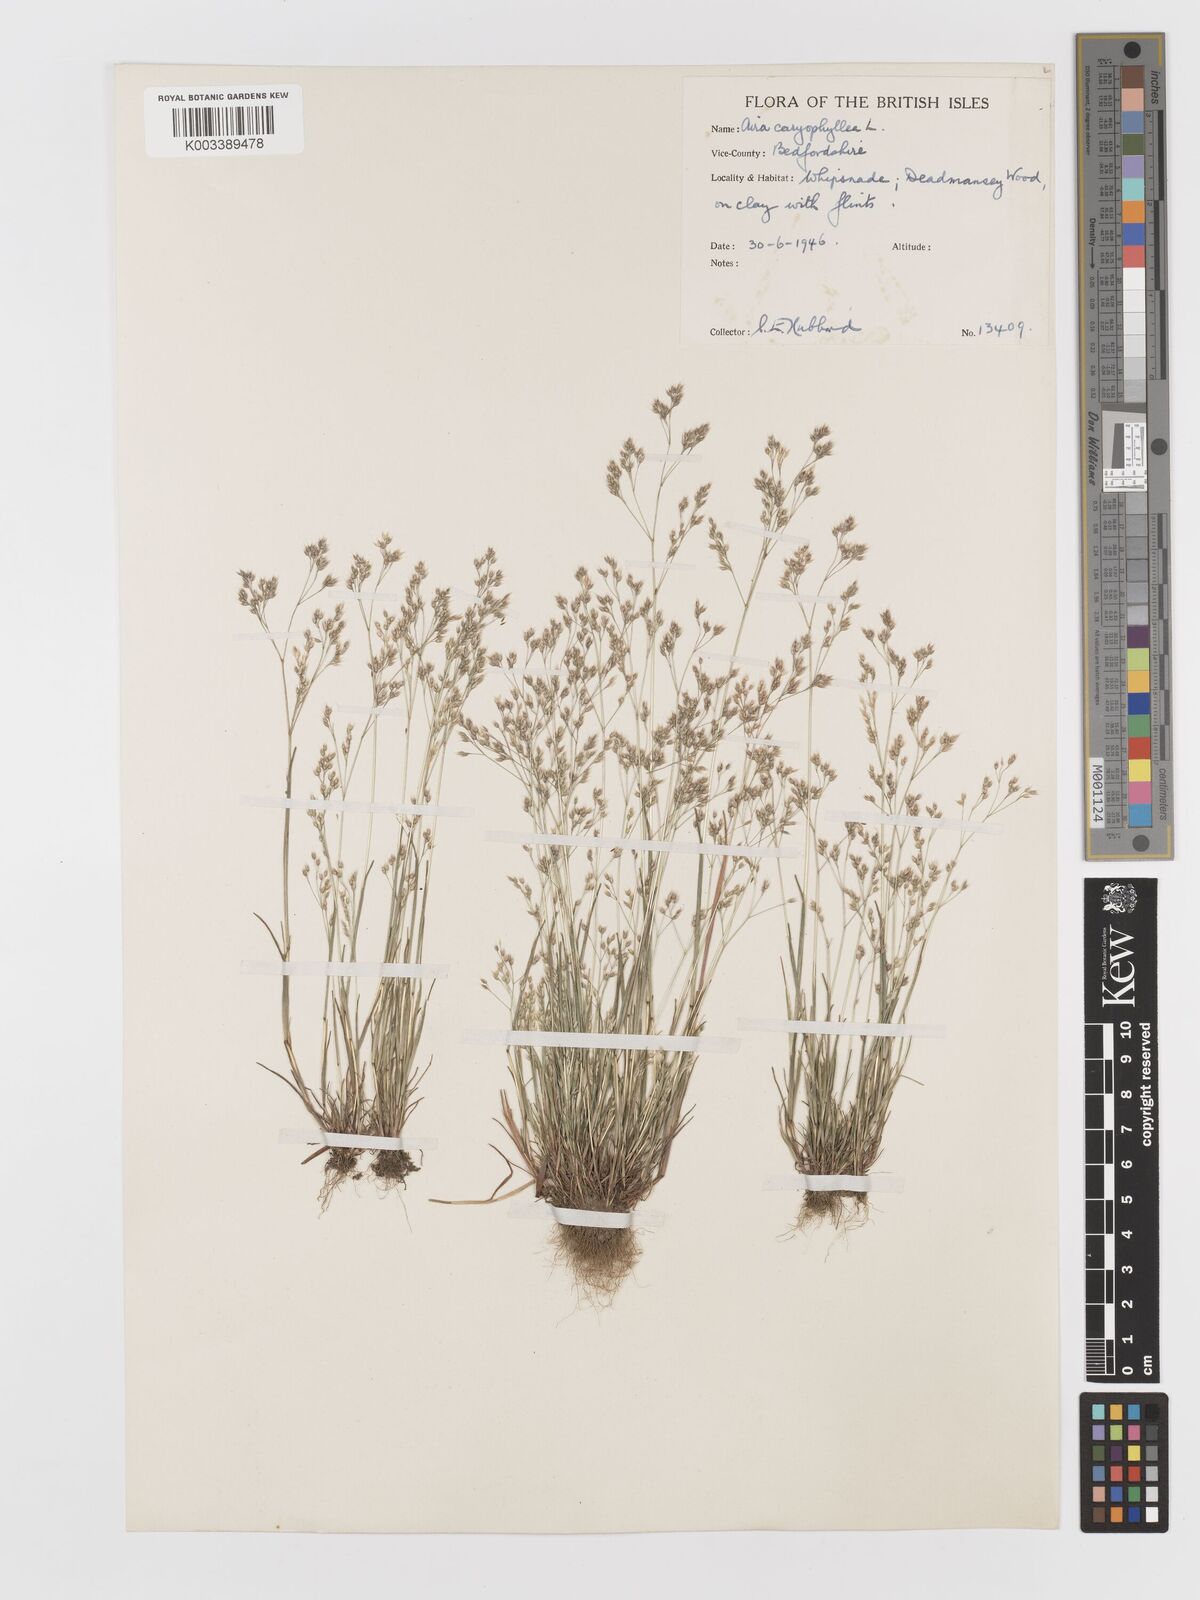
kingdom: Plantae
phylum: Tracheophyta
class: Liliopsida
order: Poales
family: Poaceae
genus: Aira
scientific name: Aira caryophyllea
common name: Silver hairgrass
